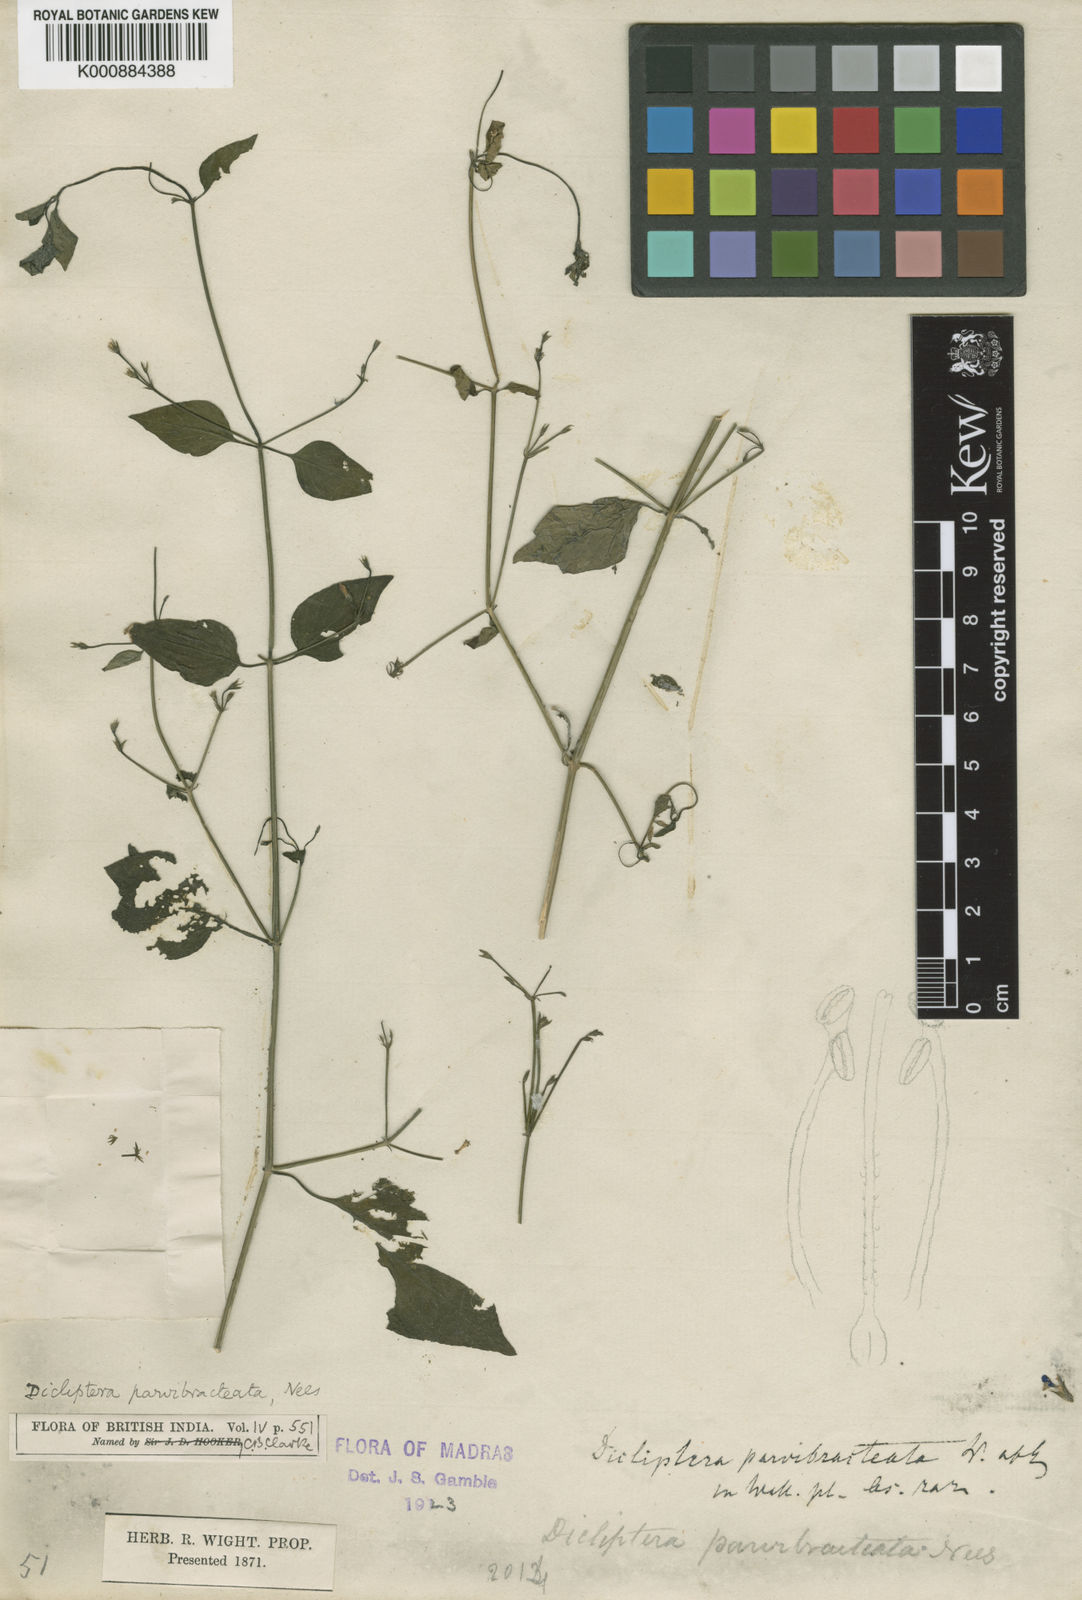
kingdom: Plantae
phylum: Tracheophyta
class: Magnoliopsida
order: Lamiales
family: Acanthaceae
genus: Dicliptera
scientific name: Dicliptera parvibracteata
